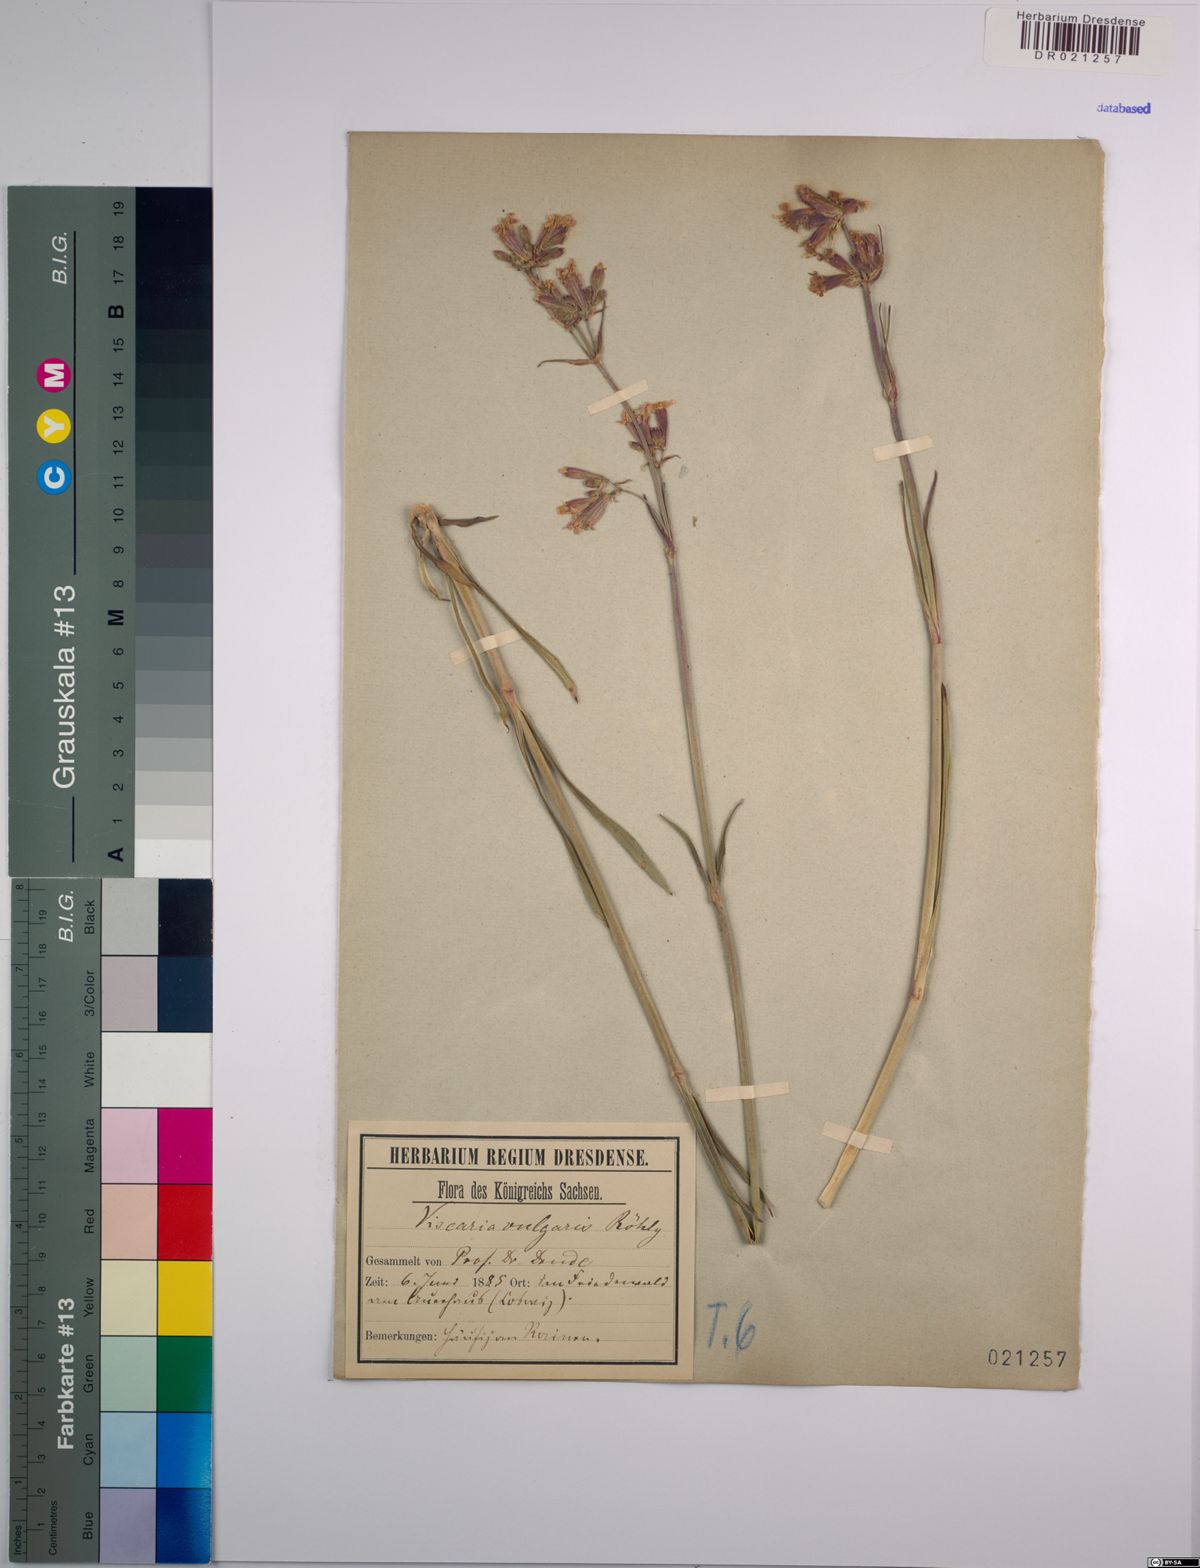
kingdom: Plantae
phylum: Tracheophyta
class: Magnoliopsida
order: Caryophyllales
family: Caryophyllaceae
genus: Viscaria
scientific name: Viscaria vulgaris
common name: Clammy campion
